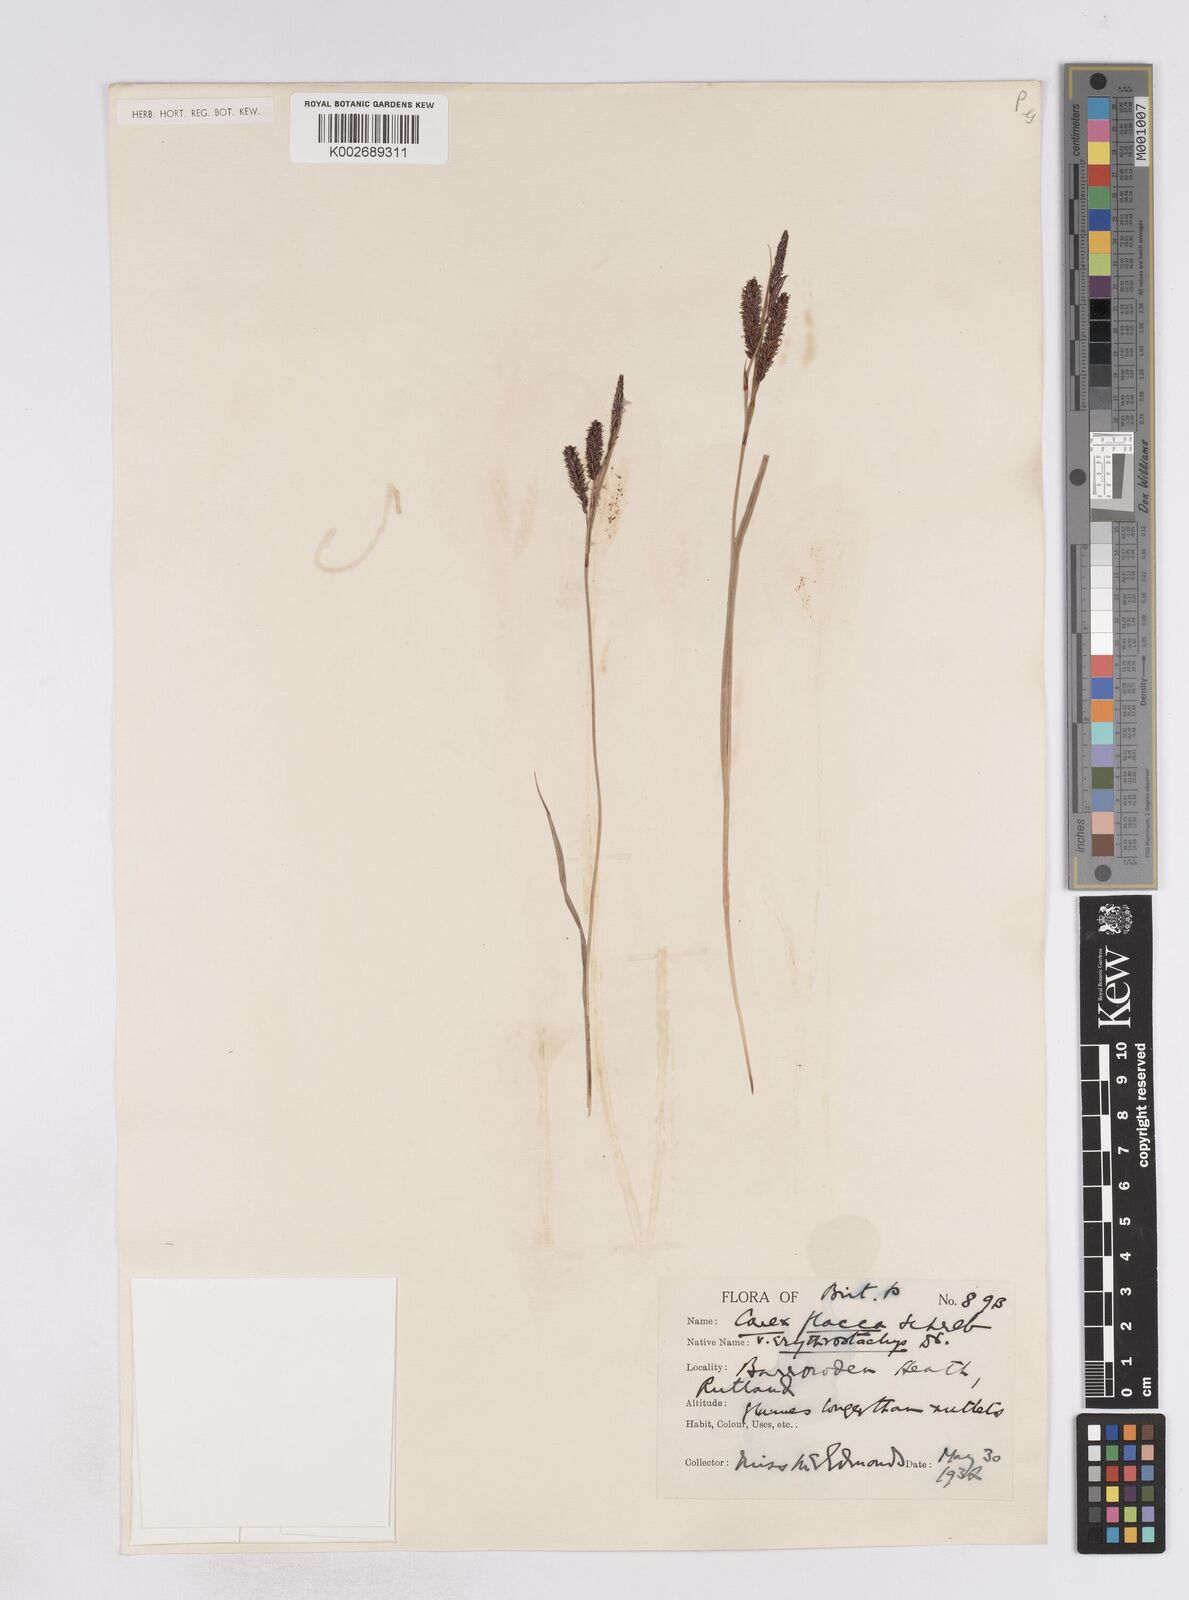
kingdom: Plantae
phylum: Tracheophyta
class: Liliopsida
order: Poales
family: Cyperaceae
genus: Carex
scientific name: Carex flacca
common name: Glaucous sedge
